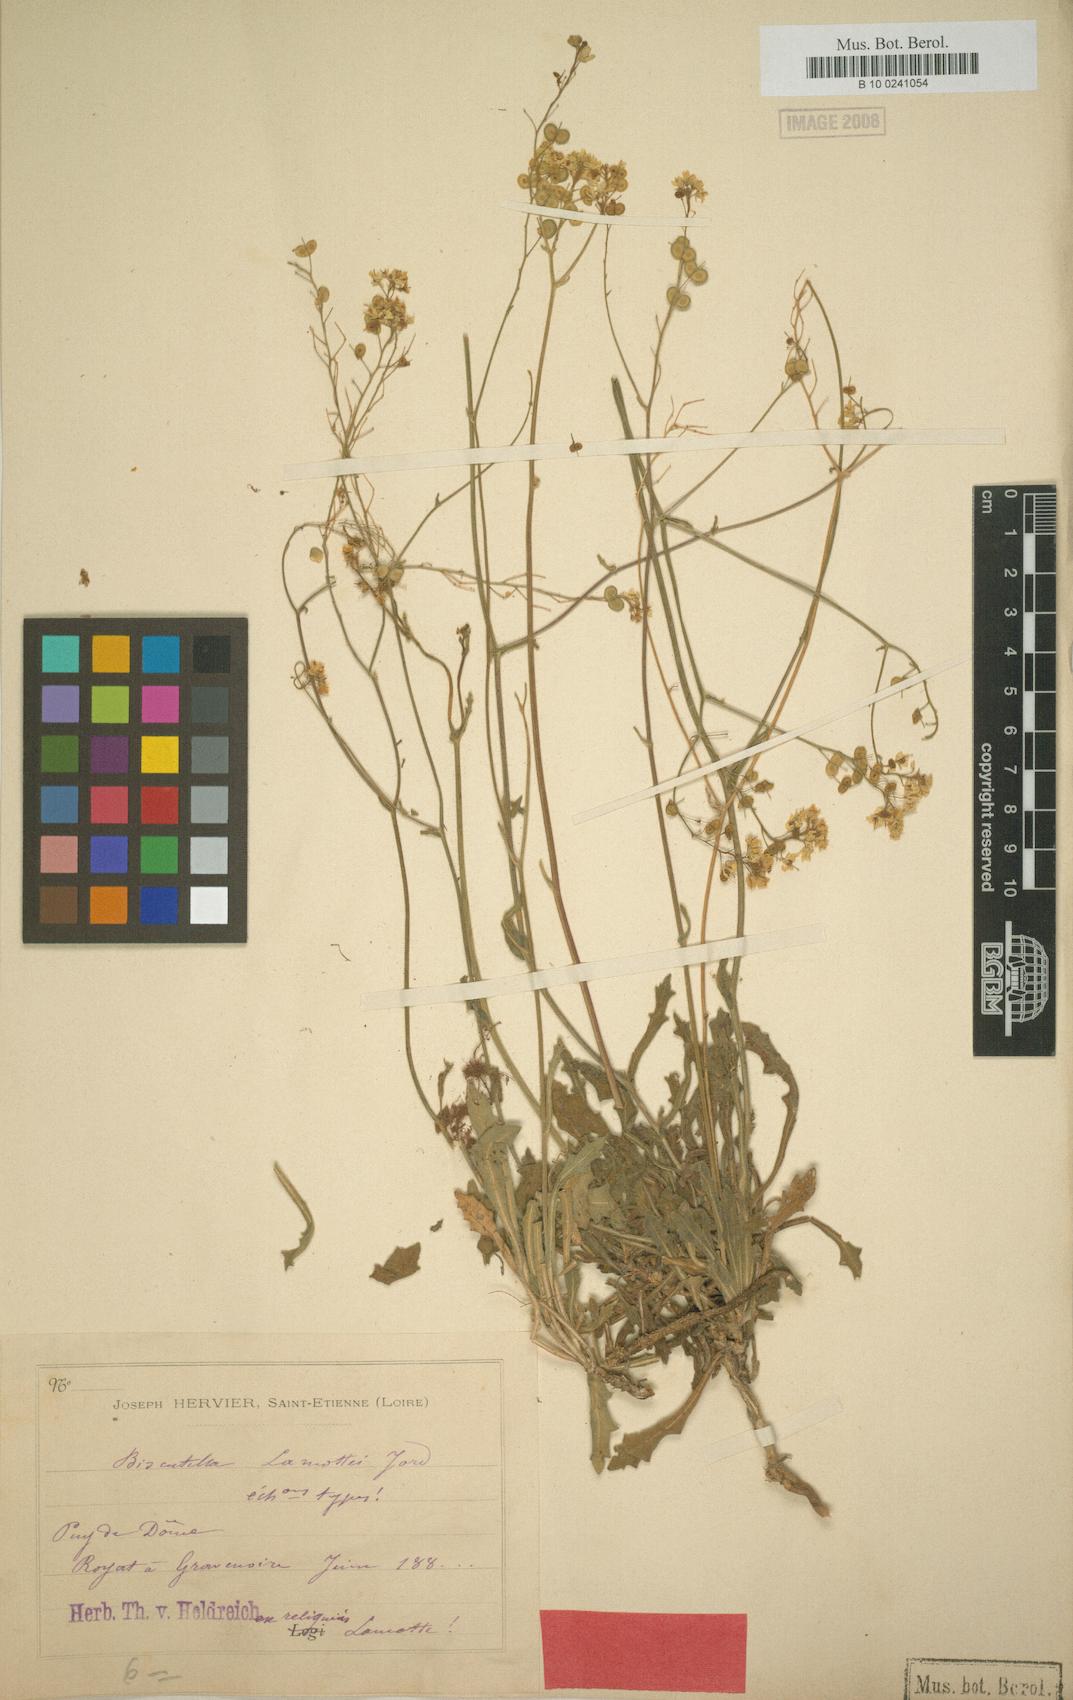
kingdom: Plantae
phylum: Tracheophyta
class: Magnoliopsida
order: Brassicales
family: Brassicaceae
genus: Biscutella
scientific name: Biscutella lamottei
